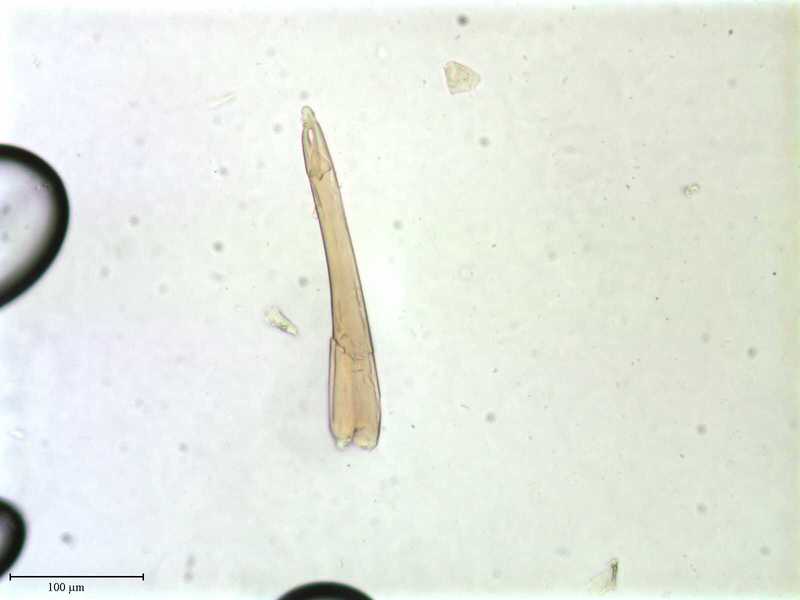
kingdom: Animalia
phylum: Arthropoda
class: Arachnida
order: Mesostigmata
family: Uropodidae
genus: Cilliba
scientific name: Cilliba
